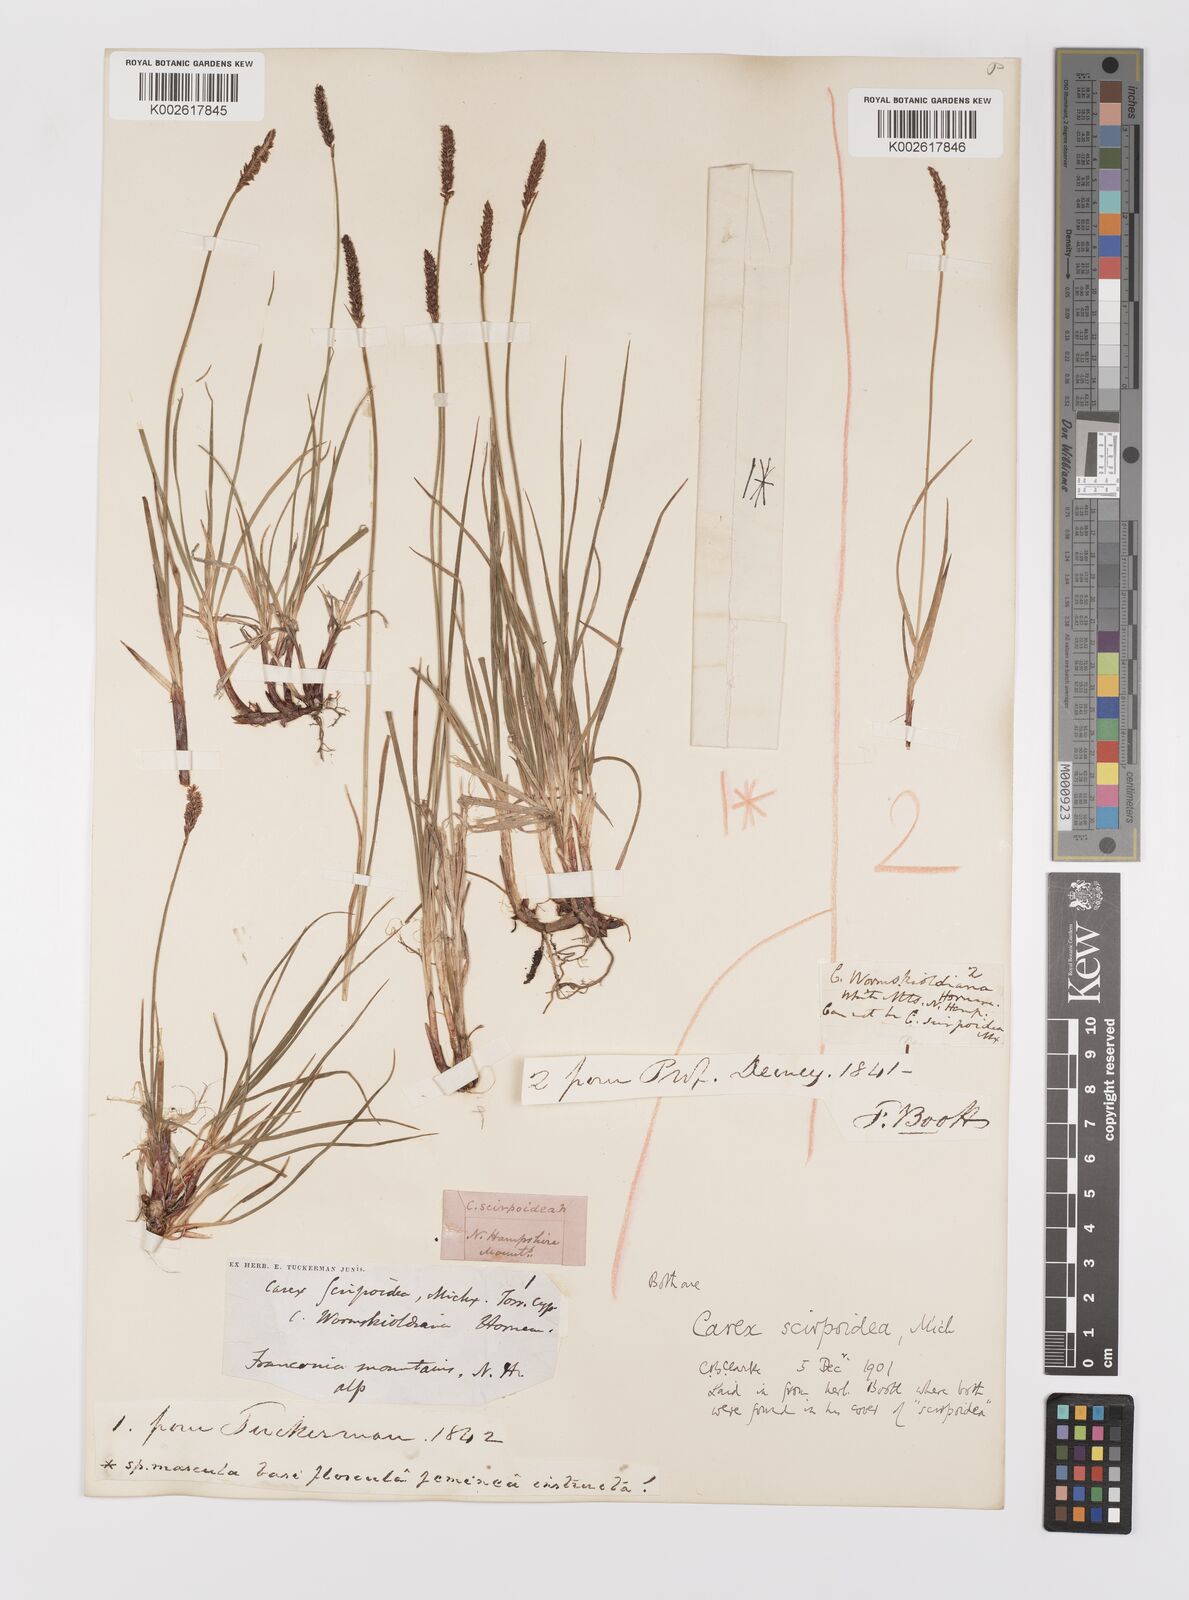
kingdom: Plantae
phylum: Tracheophyta
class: Liliopsida
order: Poales
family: Cyperaceae
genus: Carex
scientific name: Carex scirpoidea
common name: Canada single-spike sedge
